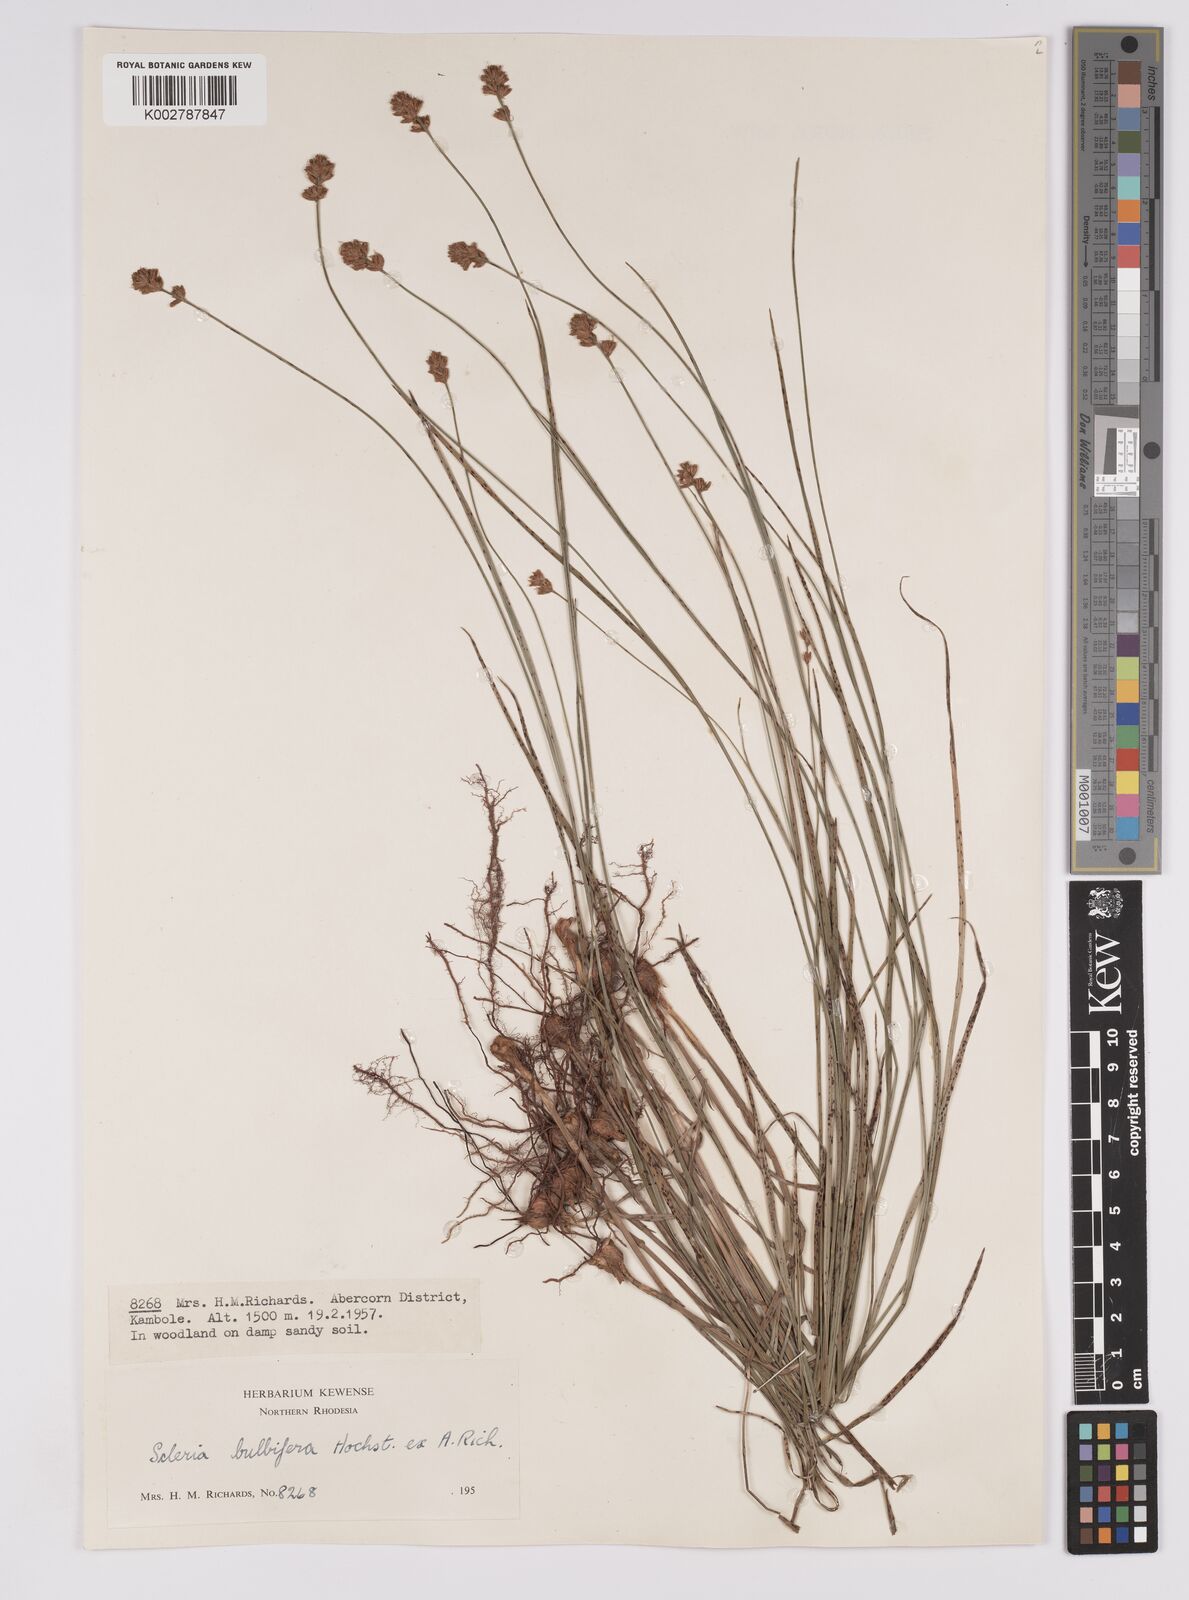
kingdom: Plantae
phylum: Tracheophyta
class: Liliopsida
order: Poales
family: Cyperaceae
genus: Scleria
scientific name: Scleria bulbifera
